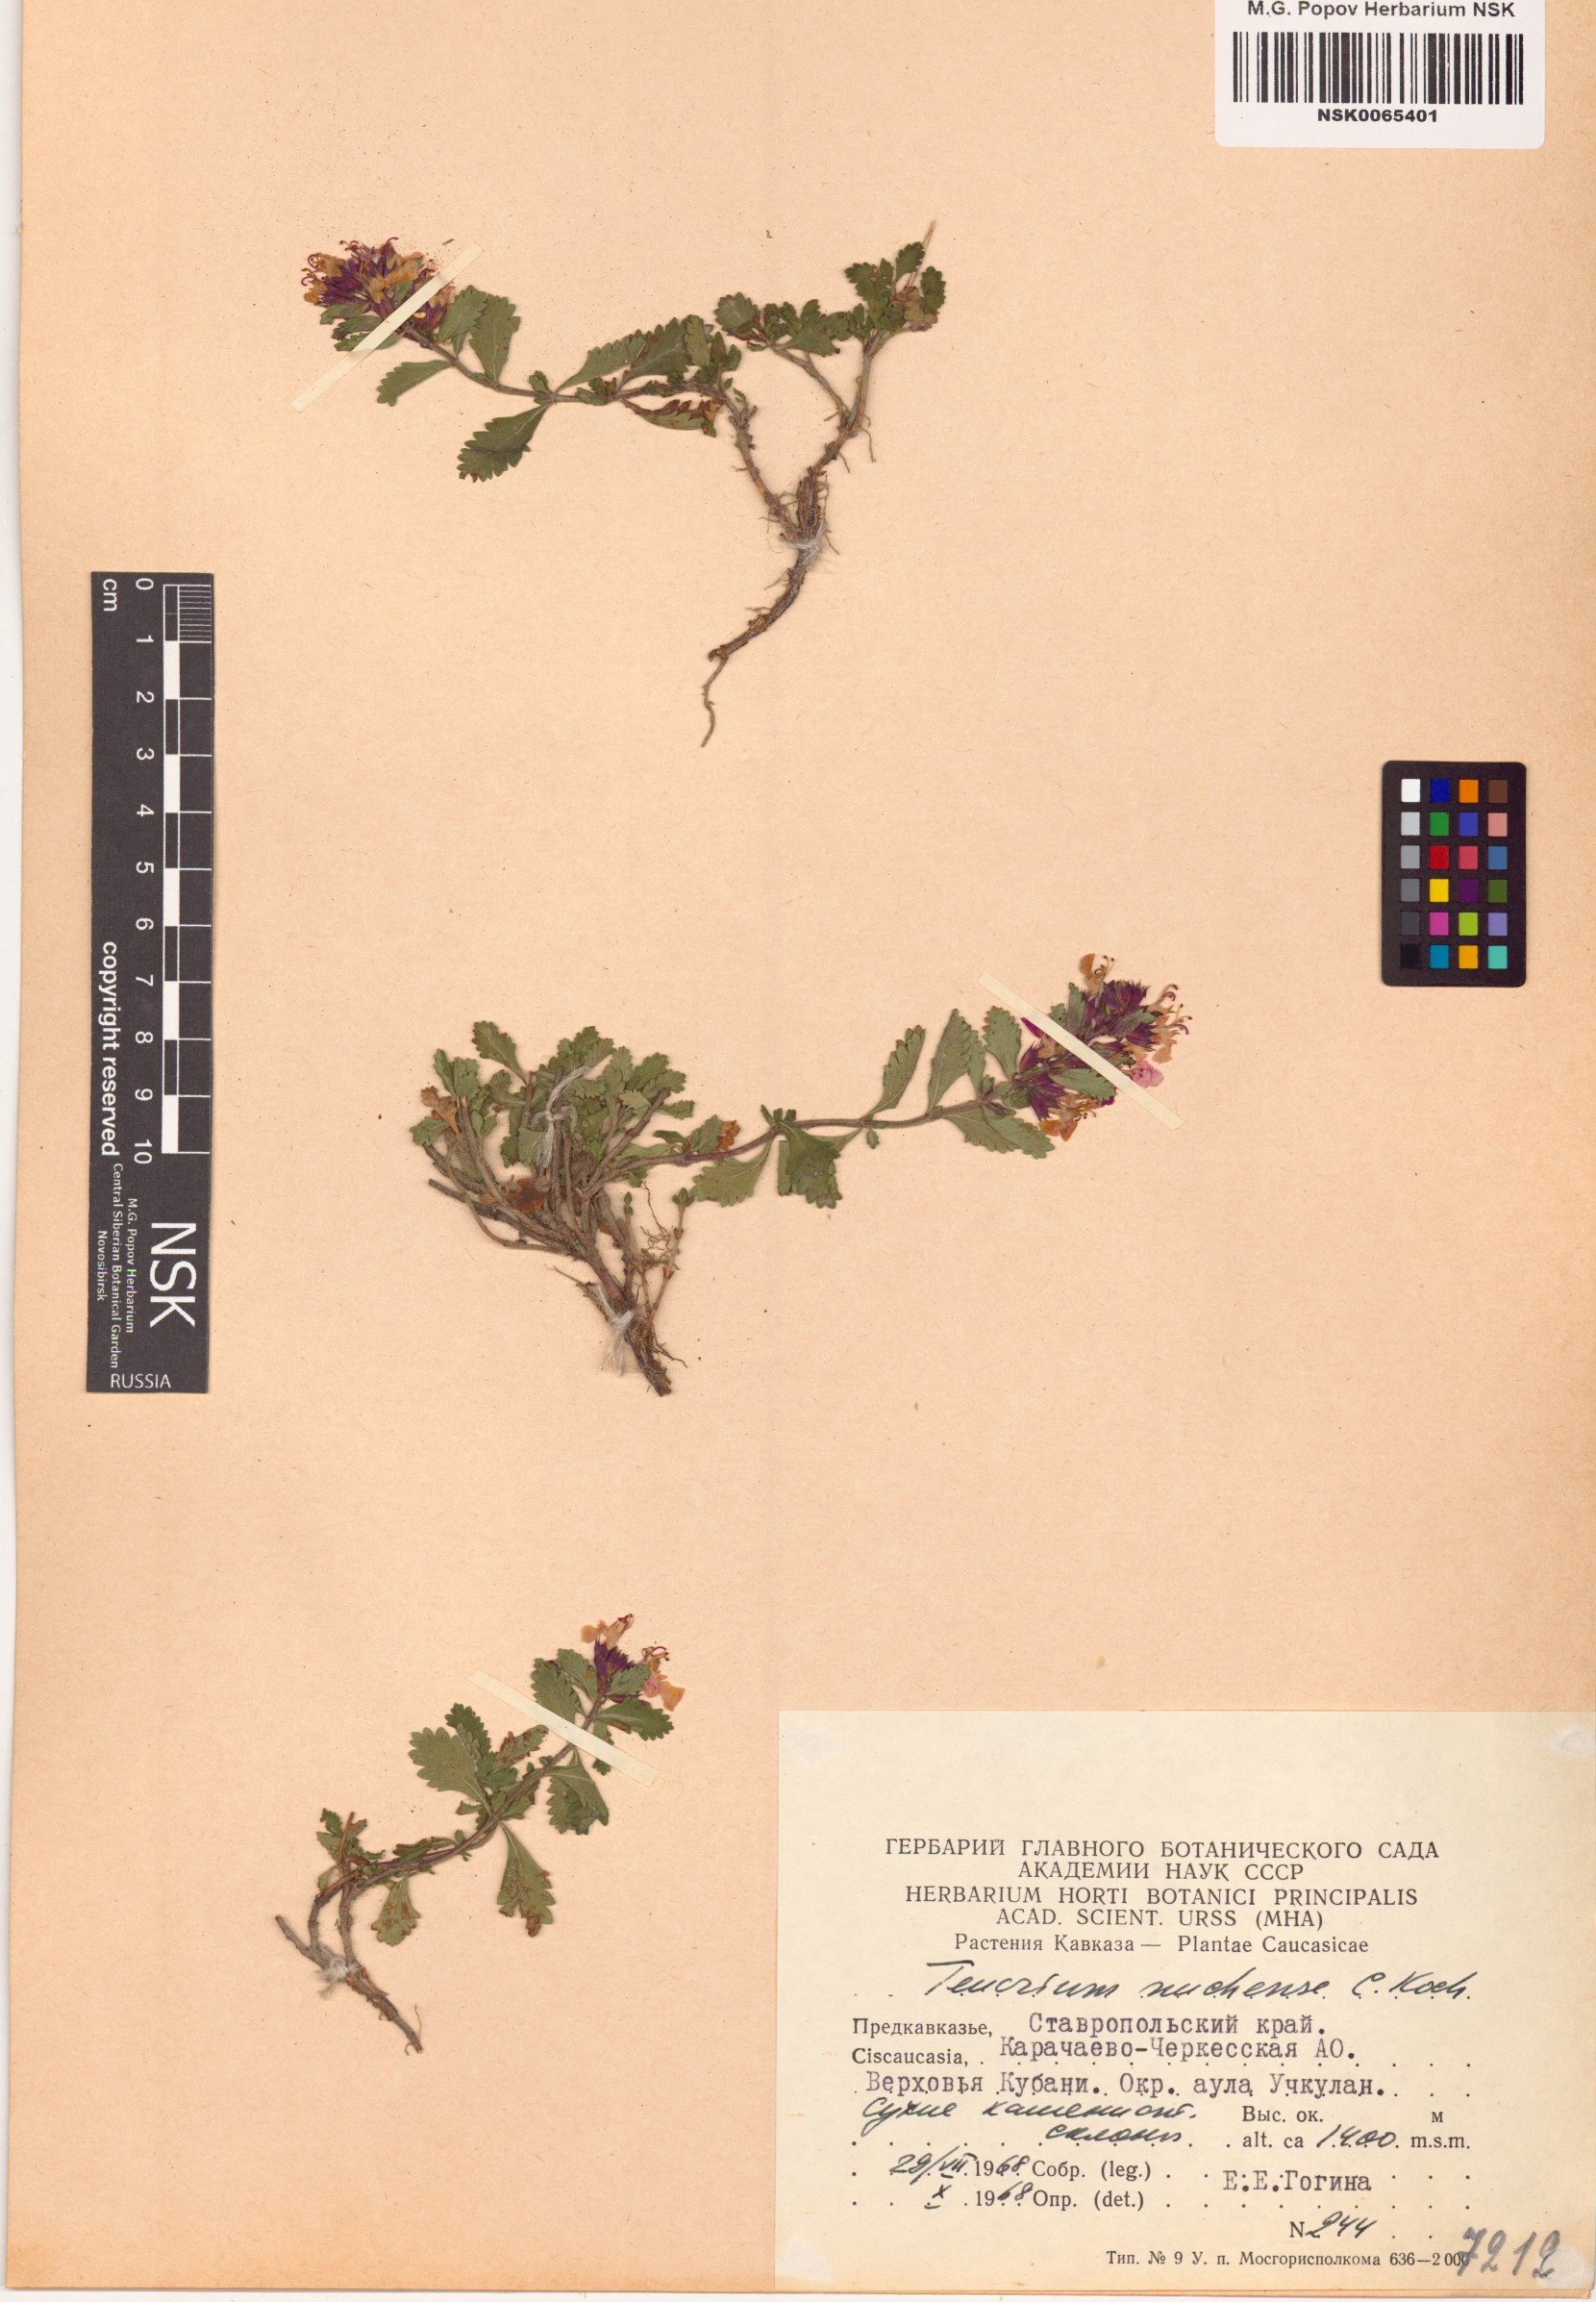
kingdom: Plantae
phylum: Tracheophyta
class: Magnoliopsida
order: Lamiales
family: Lamiaceae
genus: Teucrium
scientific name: Teucrium chamaedrys
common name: Wall germander
